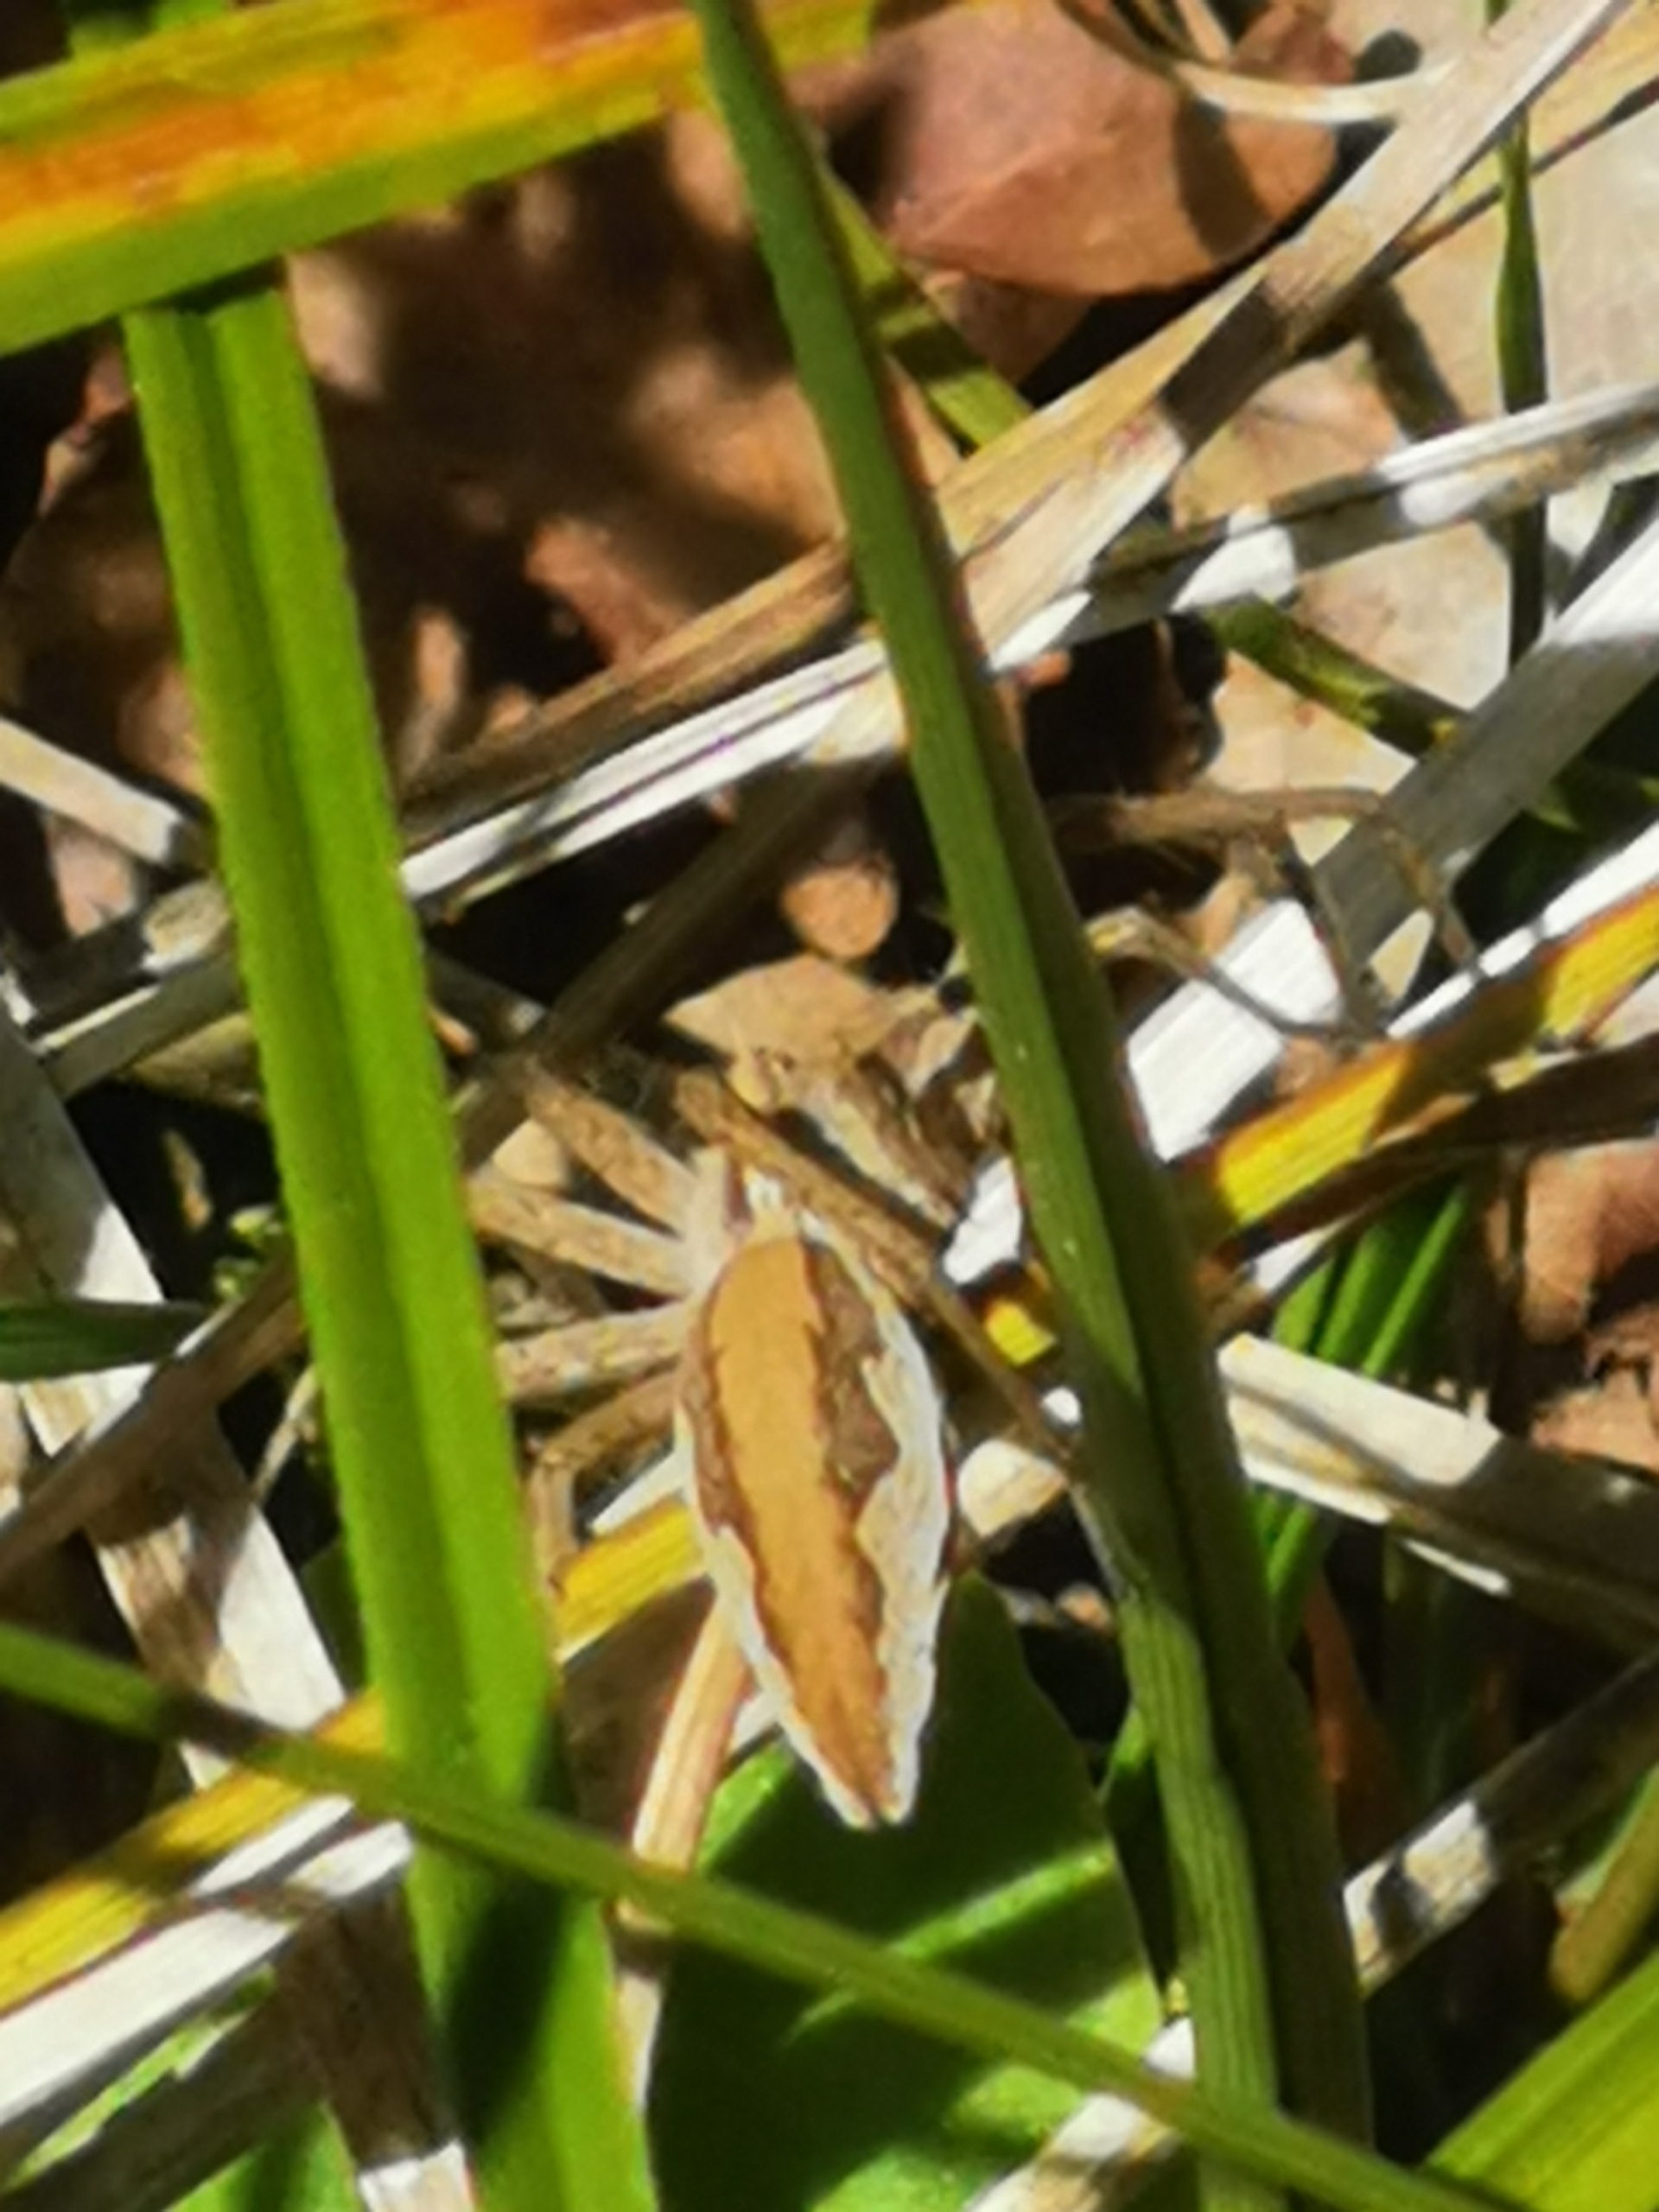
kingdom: Animalia
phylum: Arthropoda
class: Arachnida
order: Araneae
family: Pisauridae
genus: Pisaura
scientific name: Pisaura mirabilis
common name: Almindelig rovedderkop
